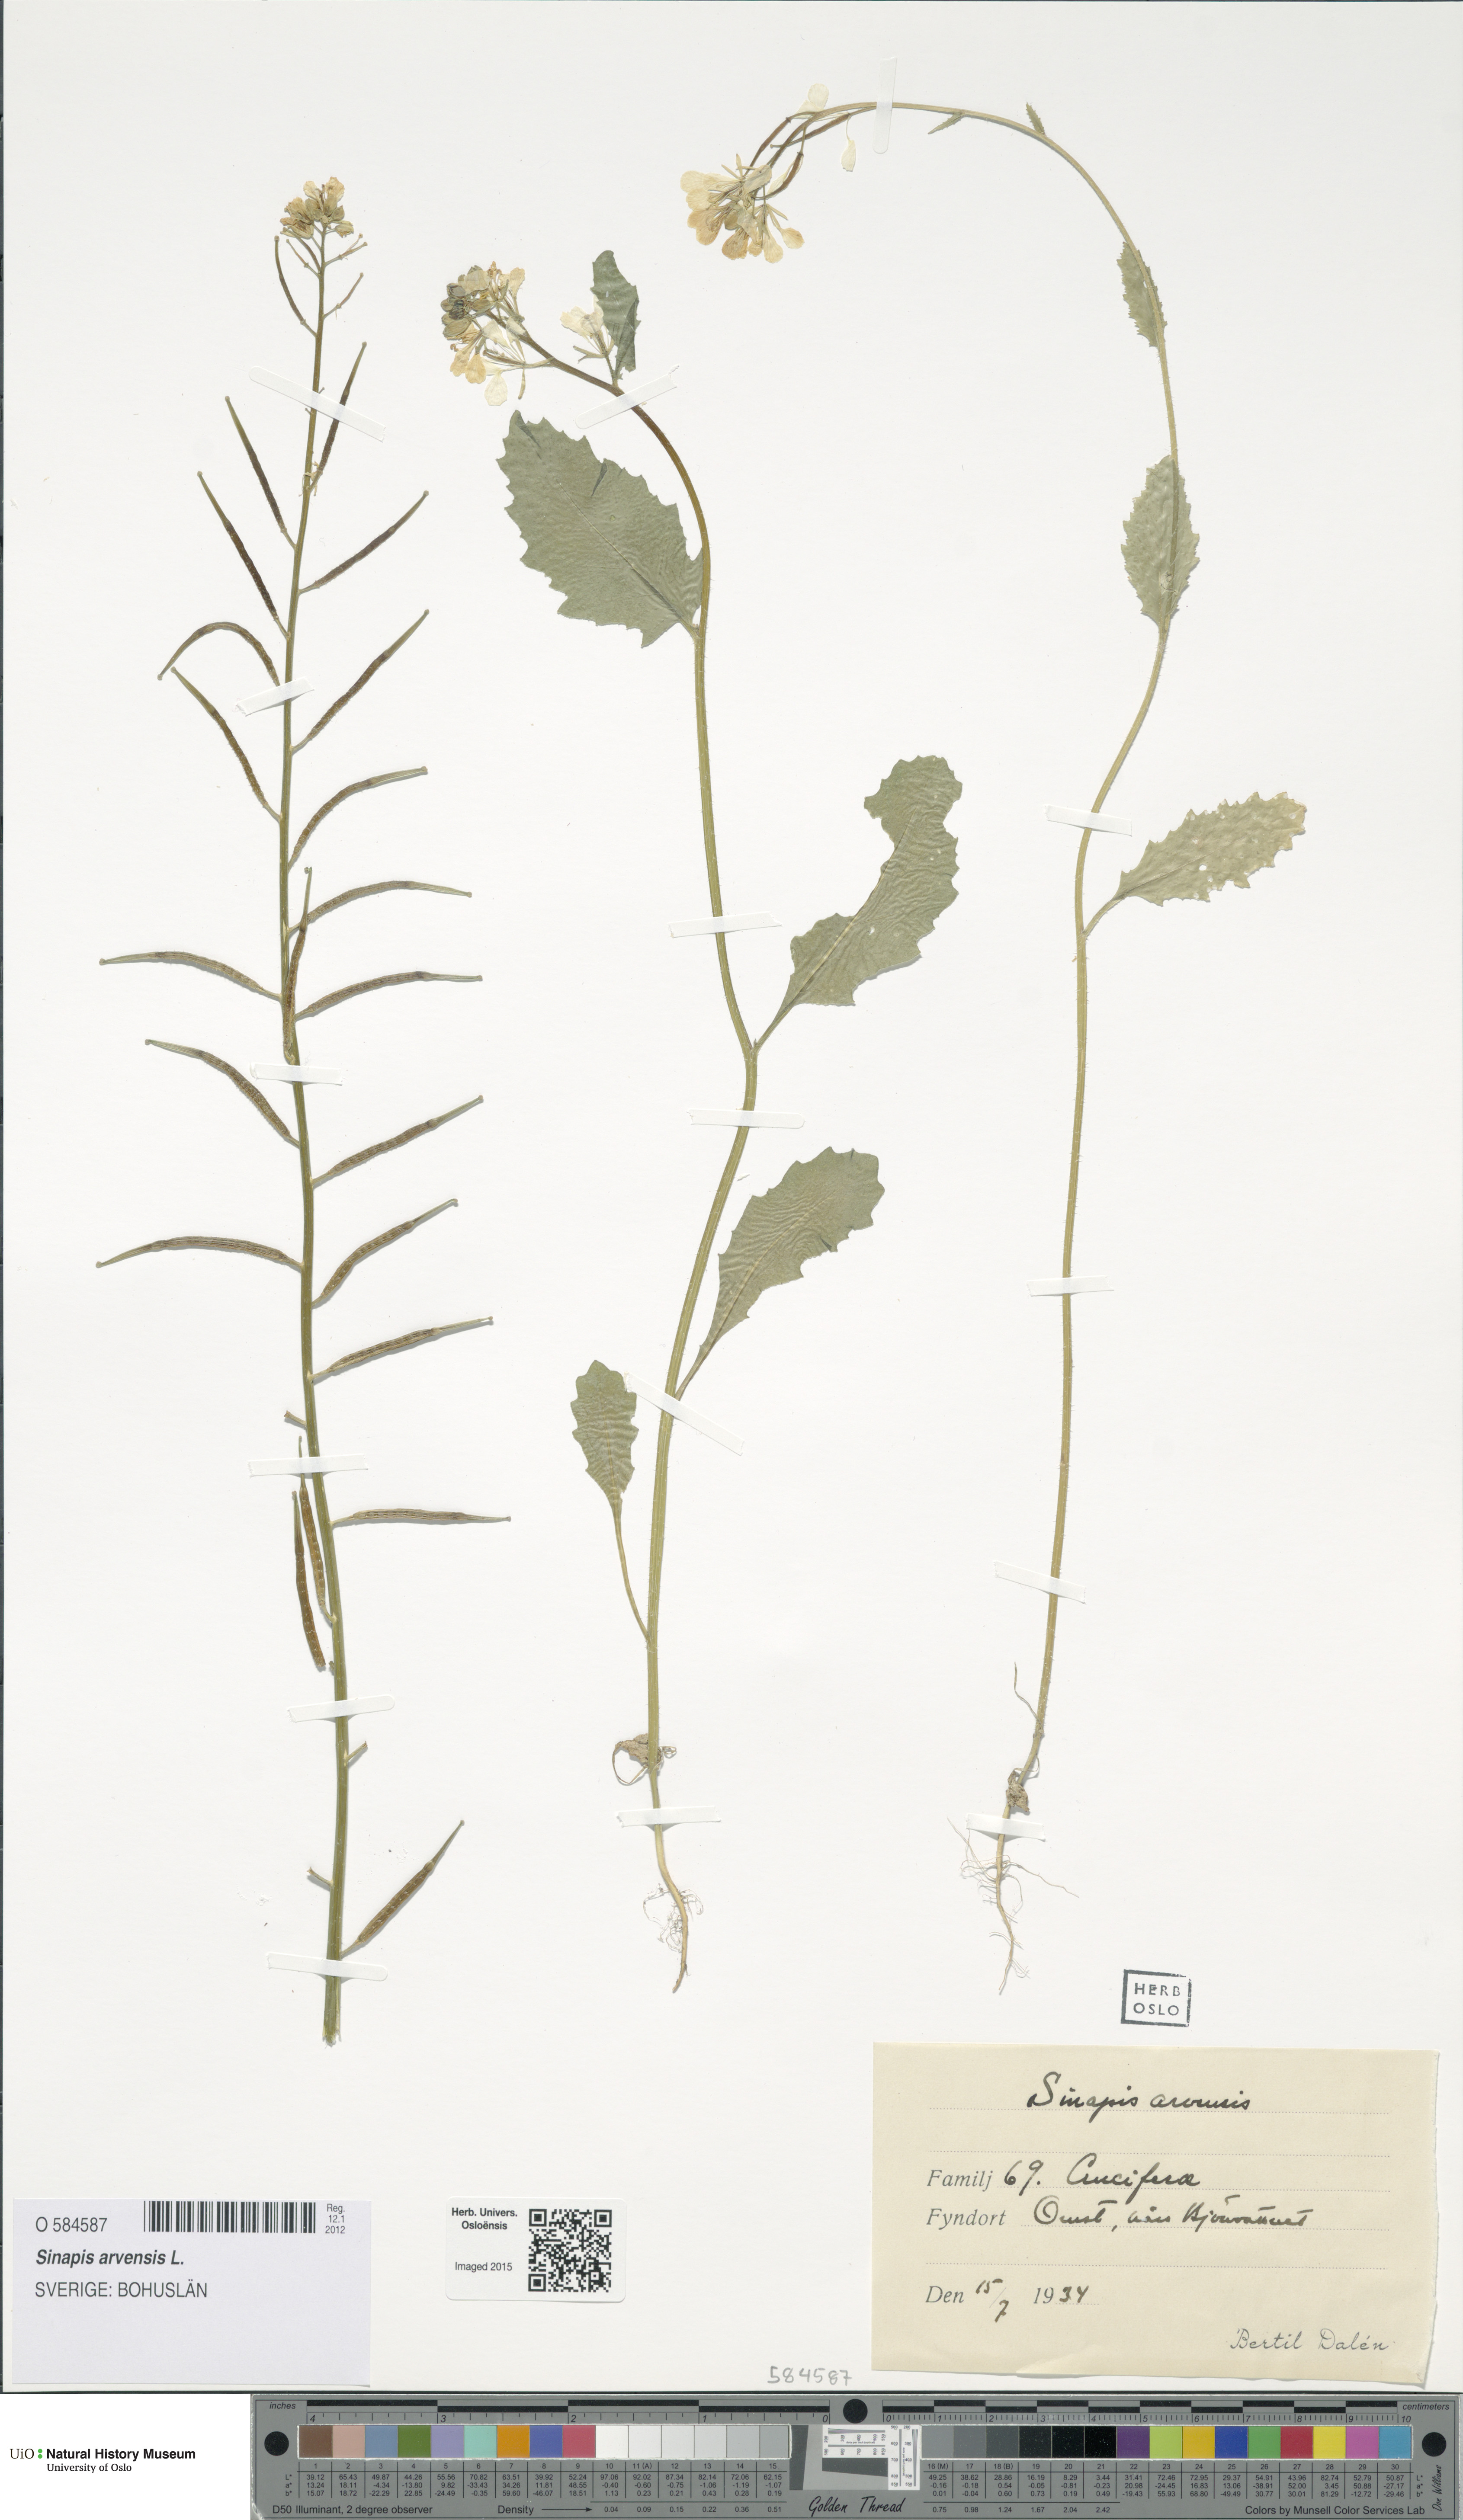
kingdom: Plantae
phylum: Tracheophyta
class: Magnoliopsida
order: Brassicales
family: Brassicaceae
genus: Sinapis
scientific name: Sinapis arvensis
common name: Charlock
